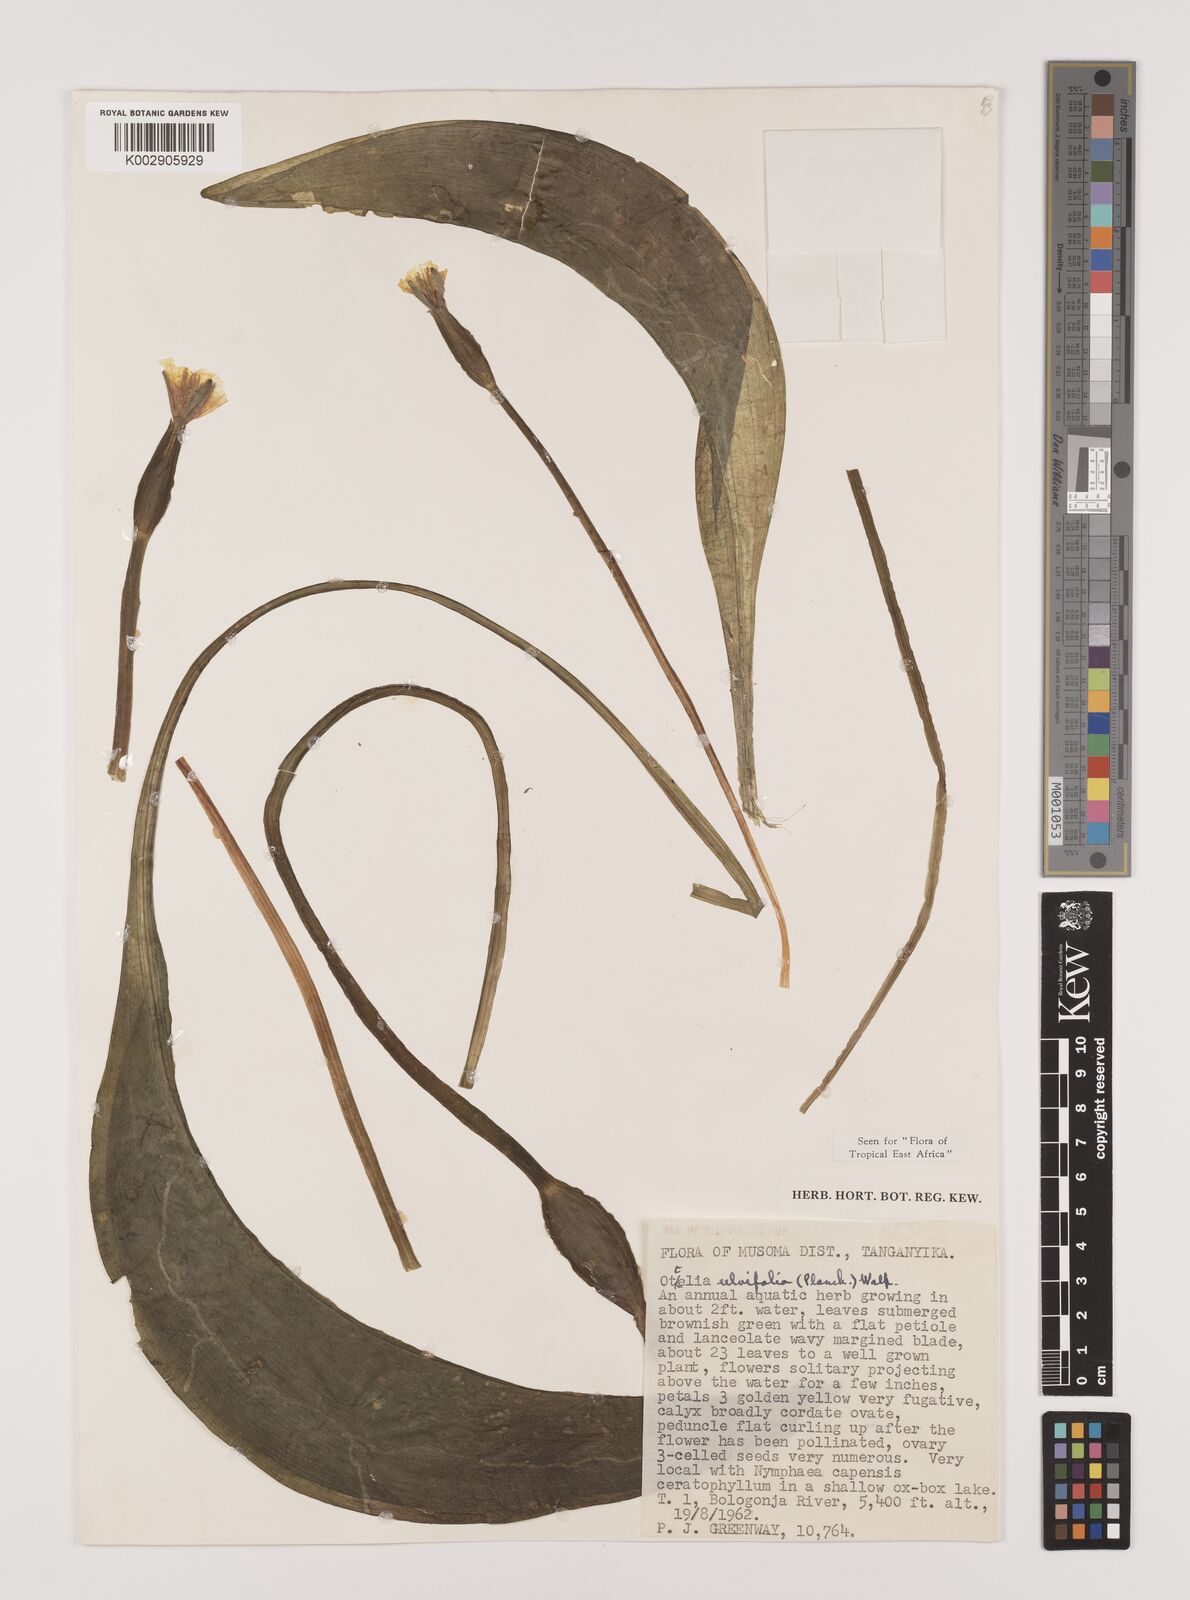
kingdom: Plantae
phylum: Tracheophyta
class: Liliopsida
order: Alismatales
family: Hydrocharitaceae
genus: Ottelia
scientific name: Ottelia ulvifolia
